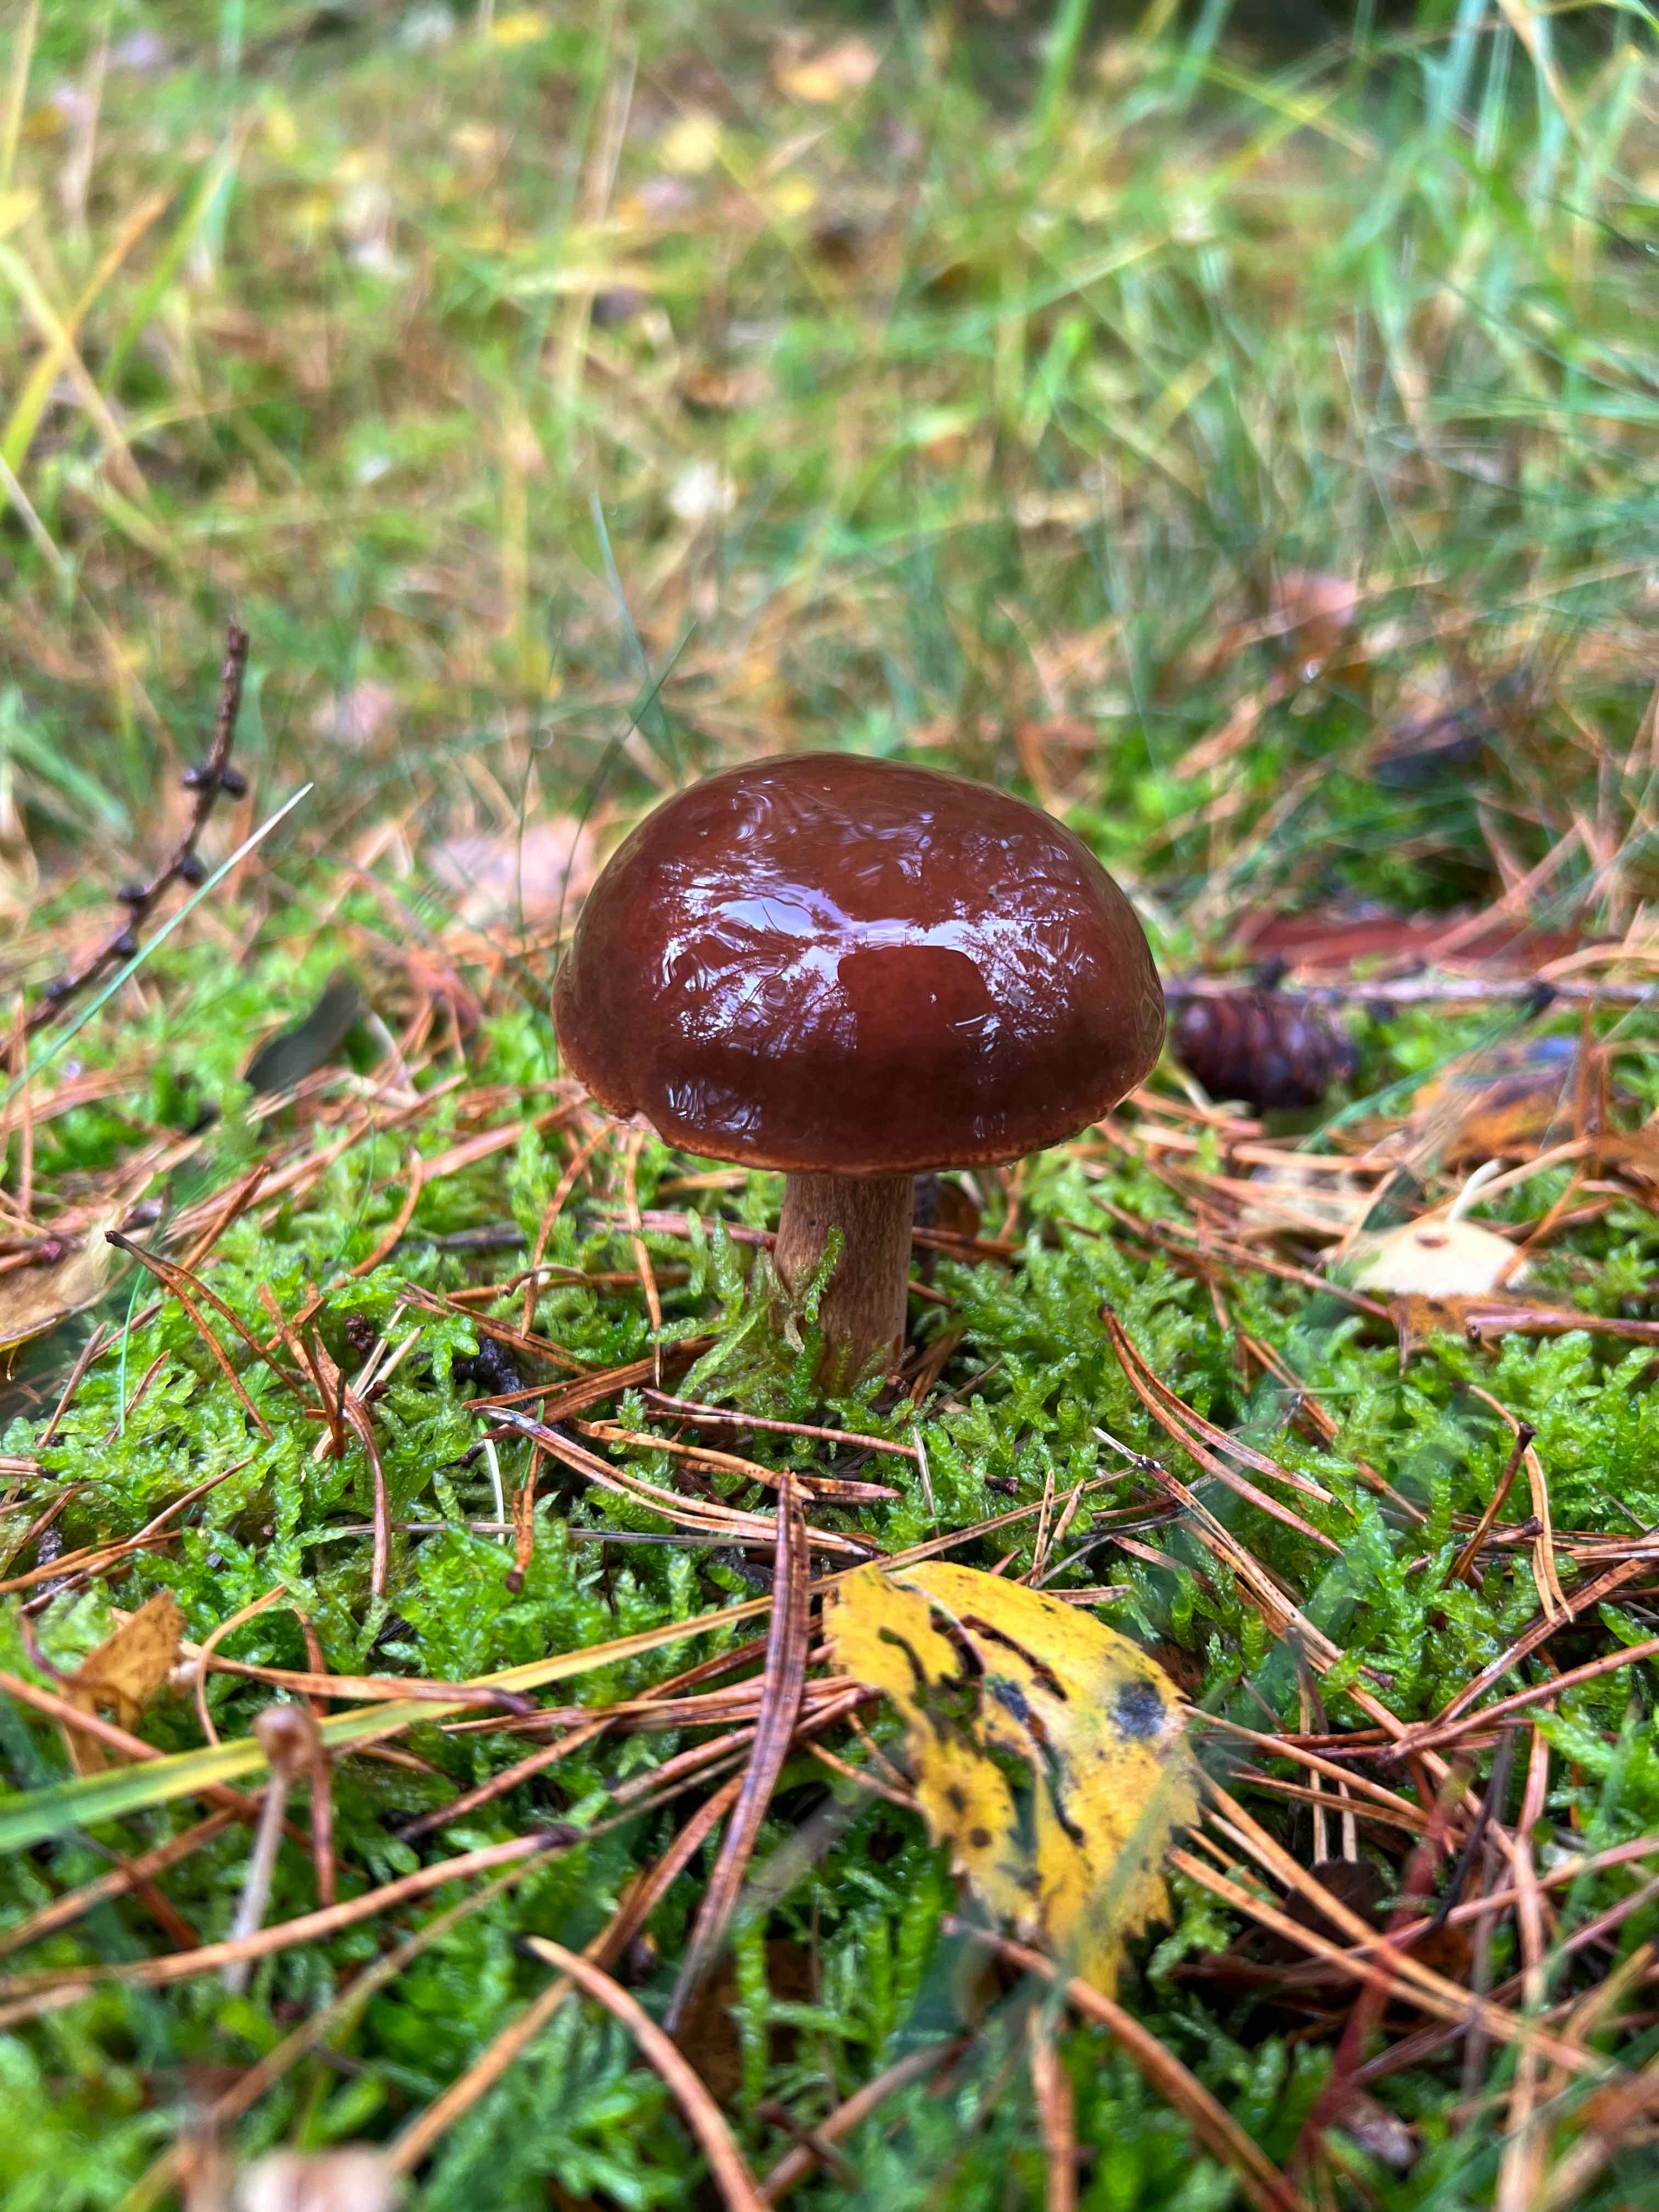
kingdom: Fungi
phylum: Basidiomycota
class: Agaricomycetes
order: Boletales
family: Boletaceae
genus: Imleria
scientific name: Imleria badia
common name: brunstokket rørhat
